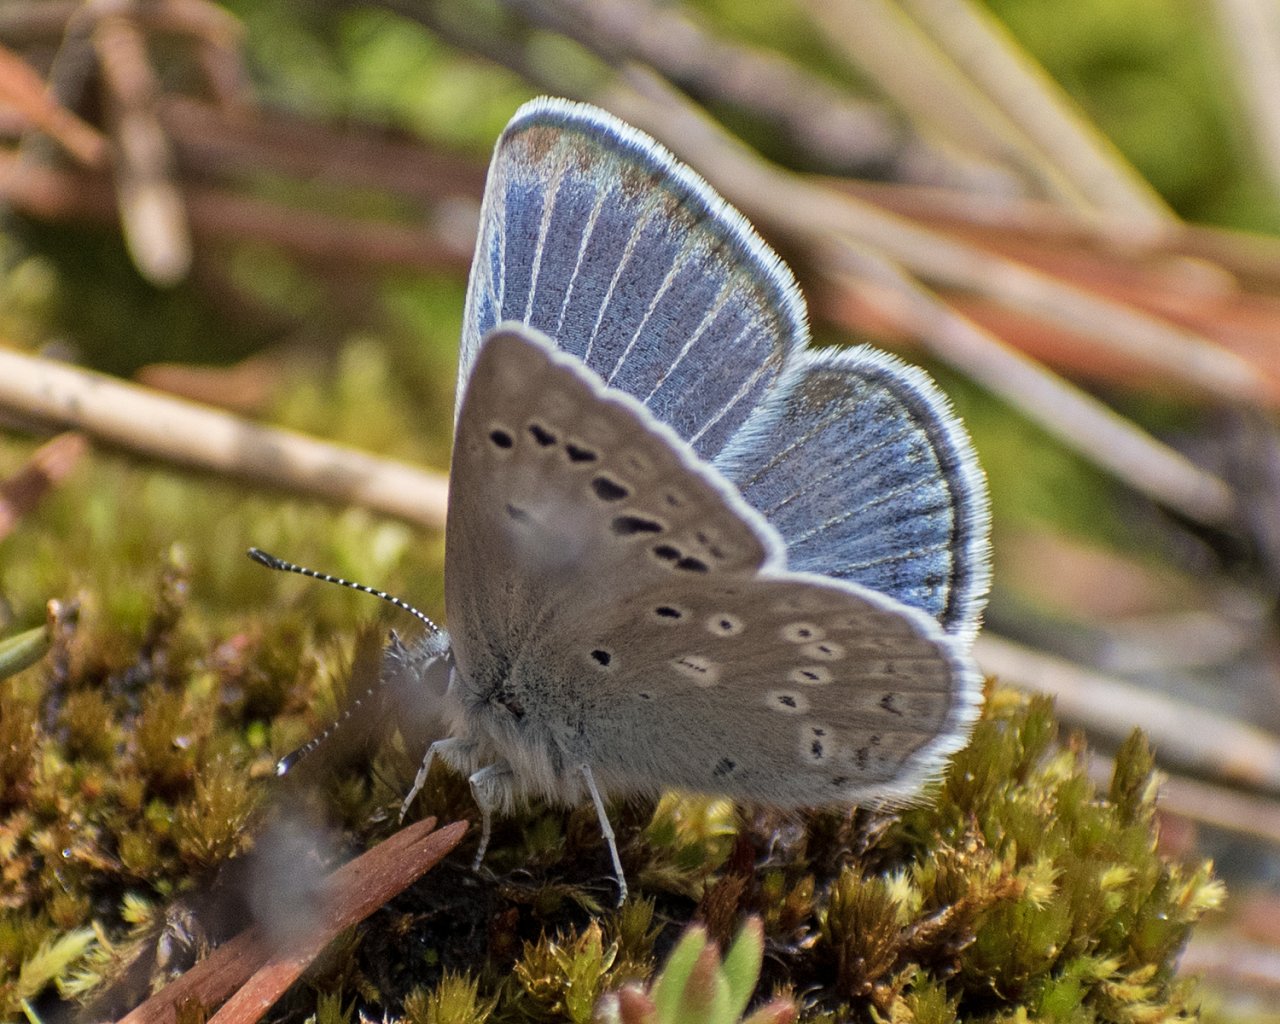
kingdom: Animalia
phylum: Arthropoda
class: Insecta
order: Lepidoptera
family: Lycaenidae
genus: Icaricia
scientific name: Icaricia icarioides
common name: Boisduval's Blue
